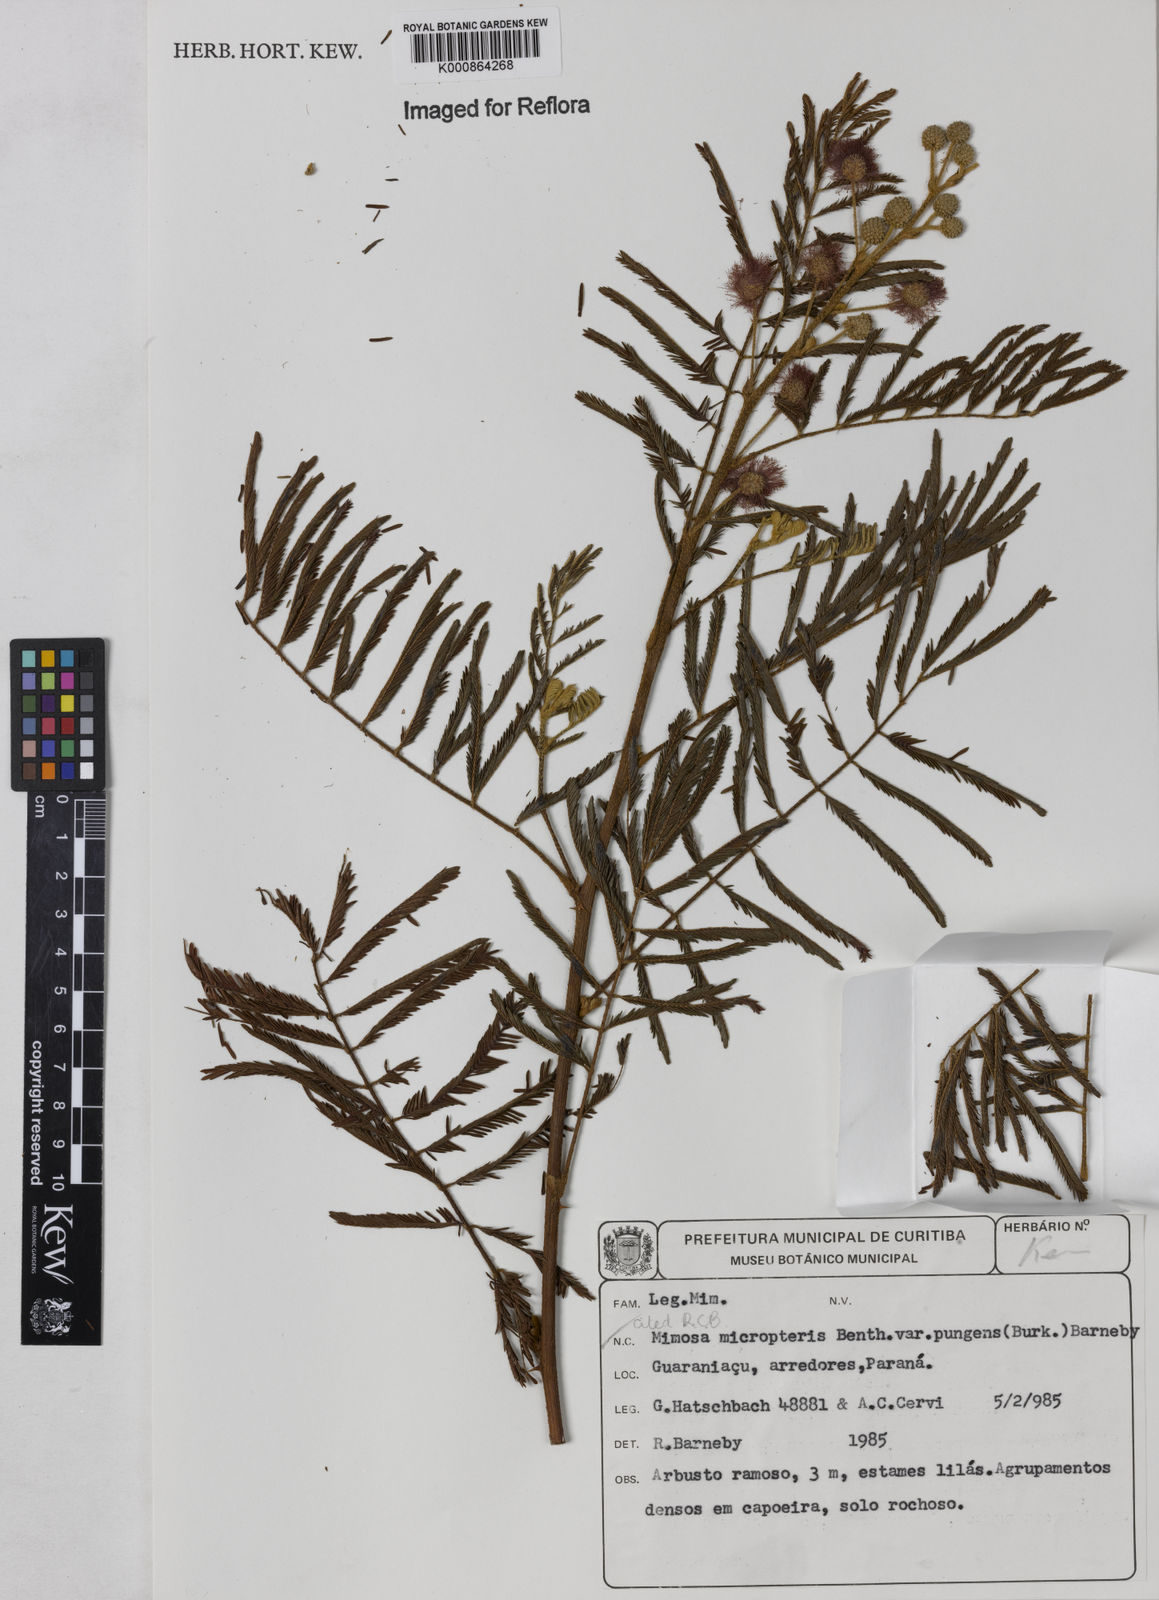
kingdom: Plantae
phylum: Tracheophyta
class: Magnoliopsida
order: Fabales
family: Fabaceae
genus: Mimosa
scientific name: Mimosa micropteris
